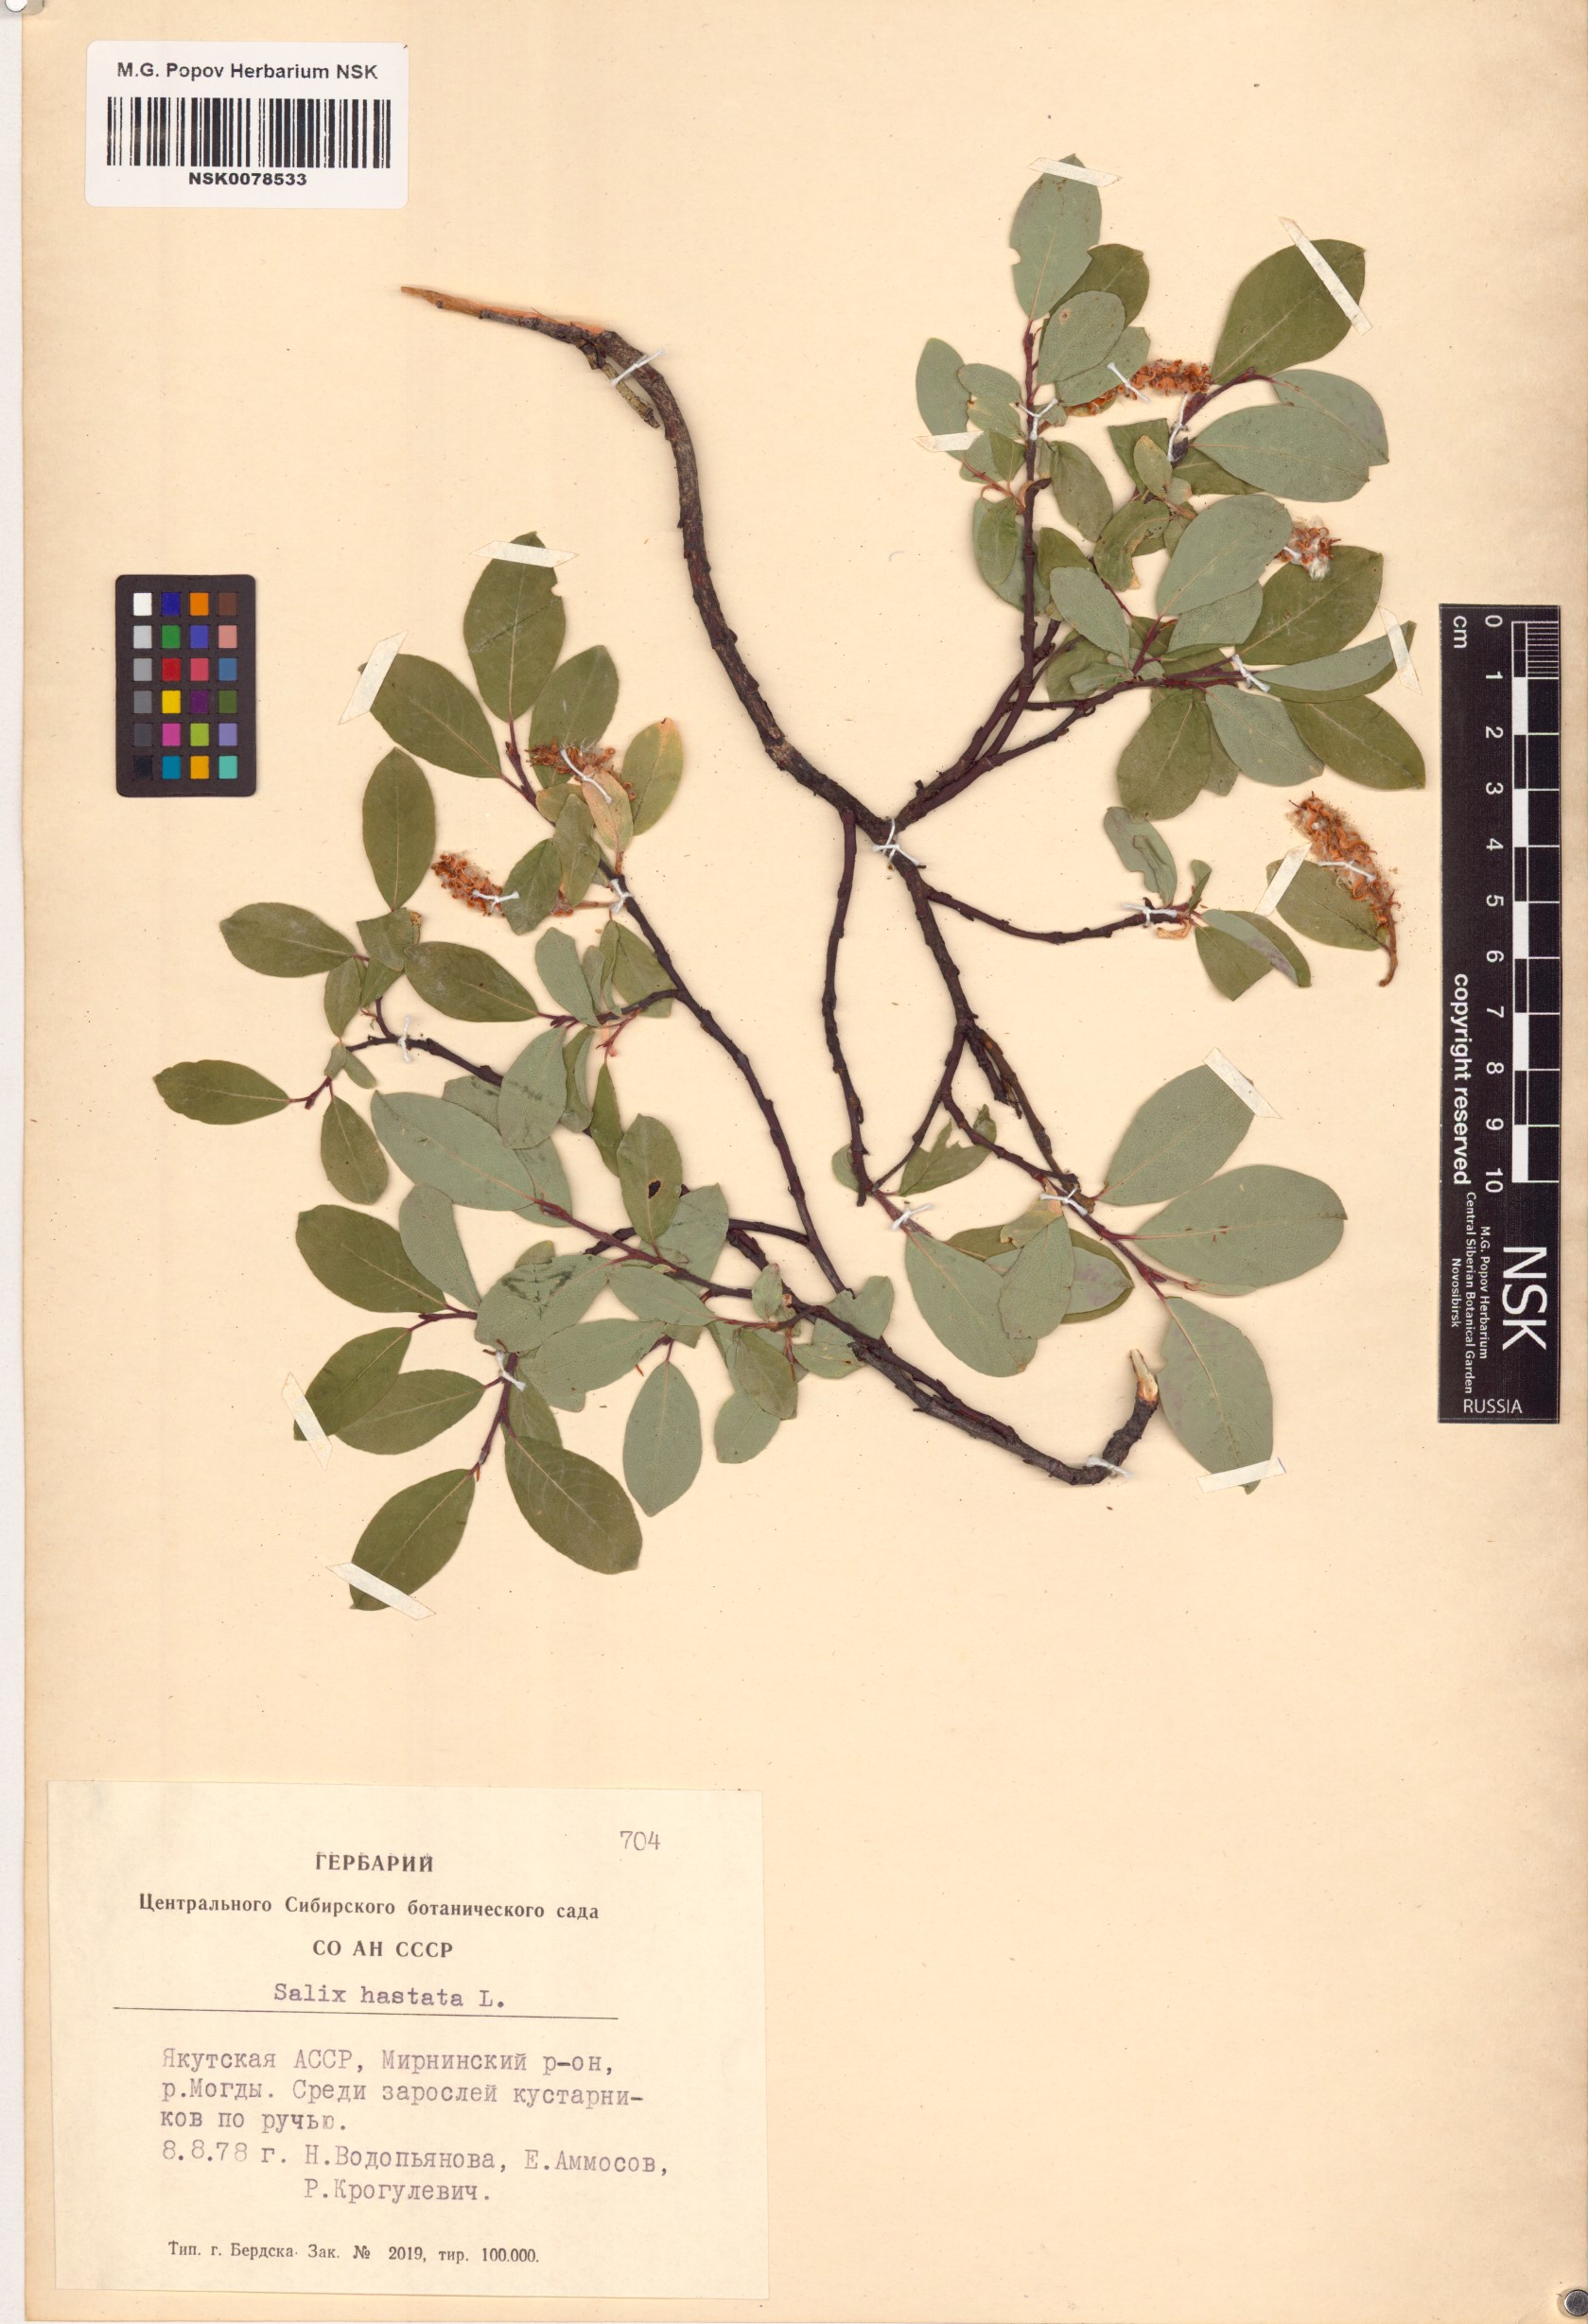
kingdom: Plantae
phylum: Tracheophyta
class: Magnoliopsida
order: Malpighiales
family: Salicaceae
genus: Salix
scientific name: Salix hastata
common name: Halberd willow
